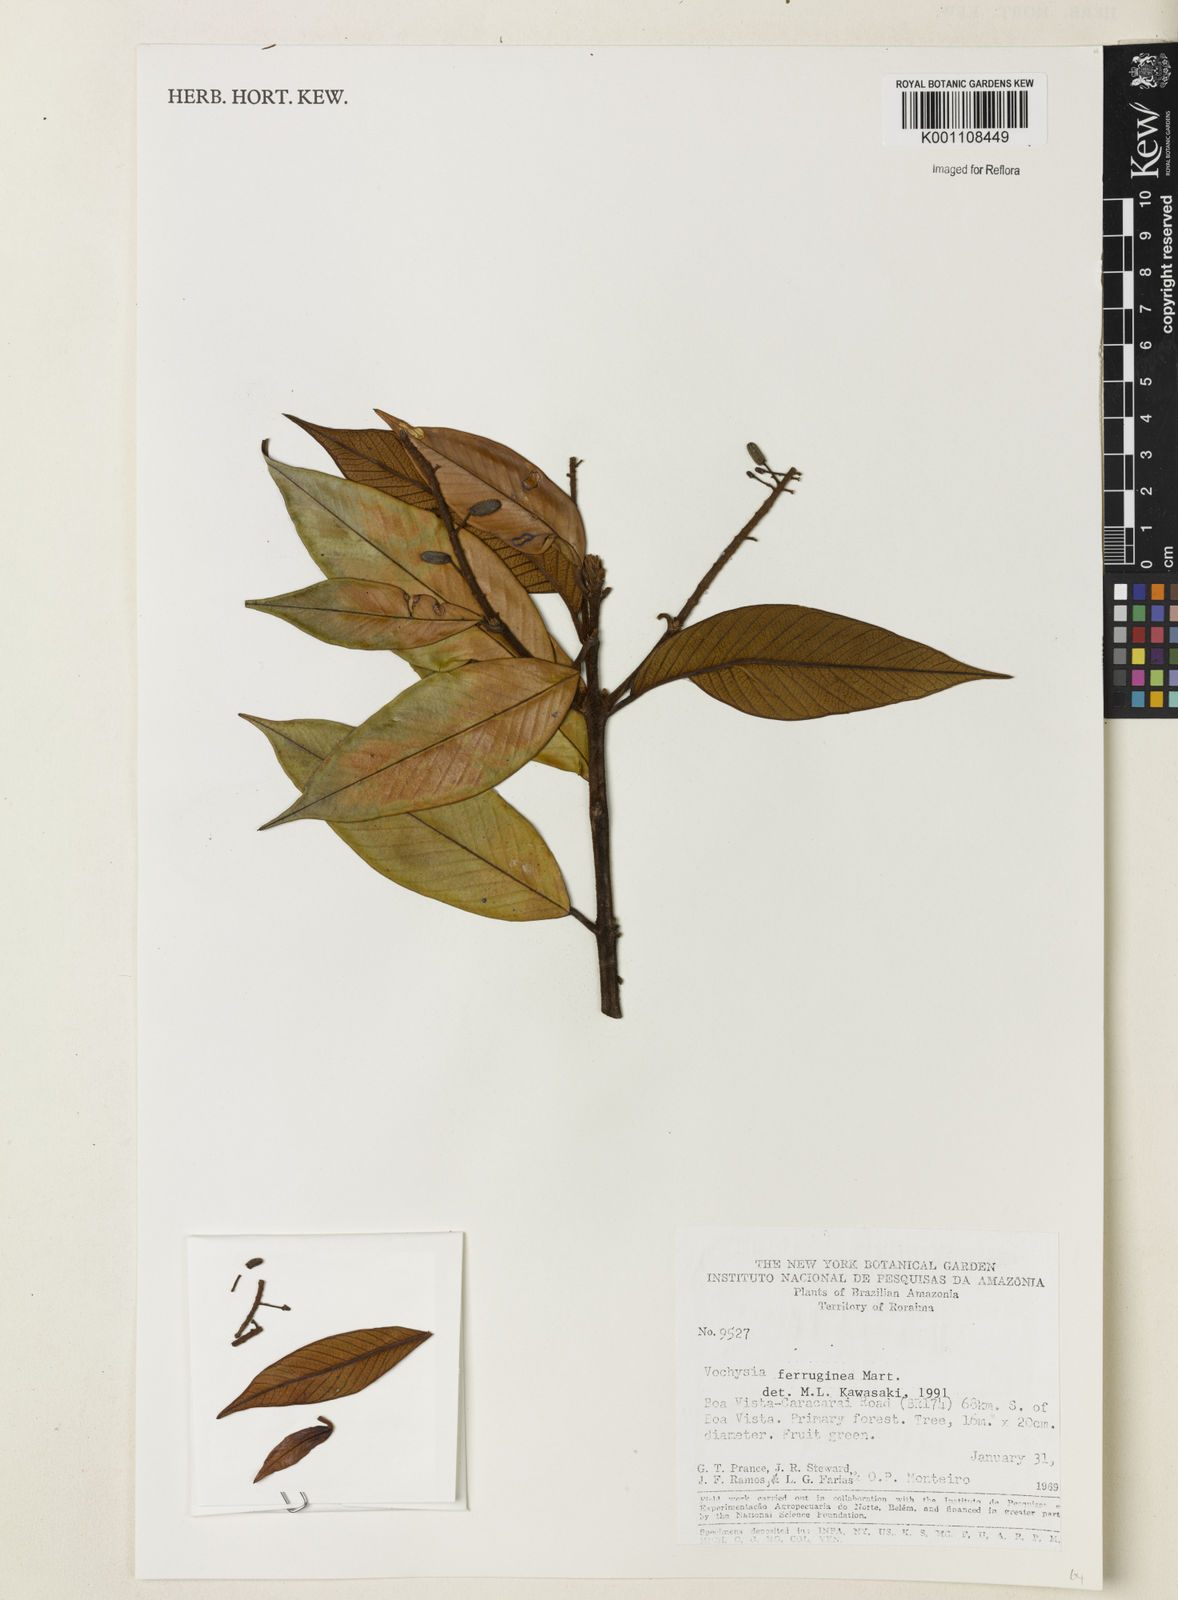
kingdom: Plantae
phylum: Tracheophyta
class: Magnoliopsida
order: Myrtales
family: Vochysiaceae
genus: Vochysia
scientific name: Vochysia ferruginea
